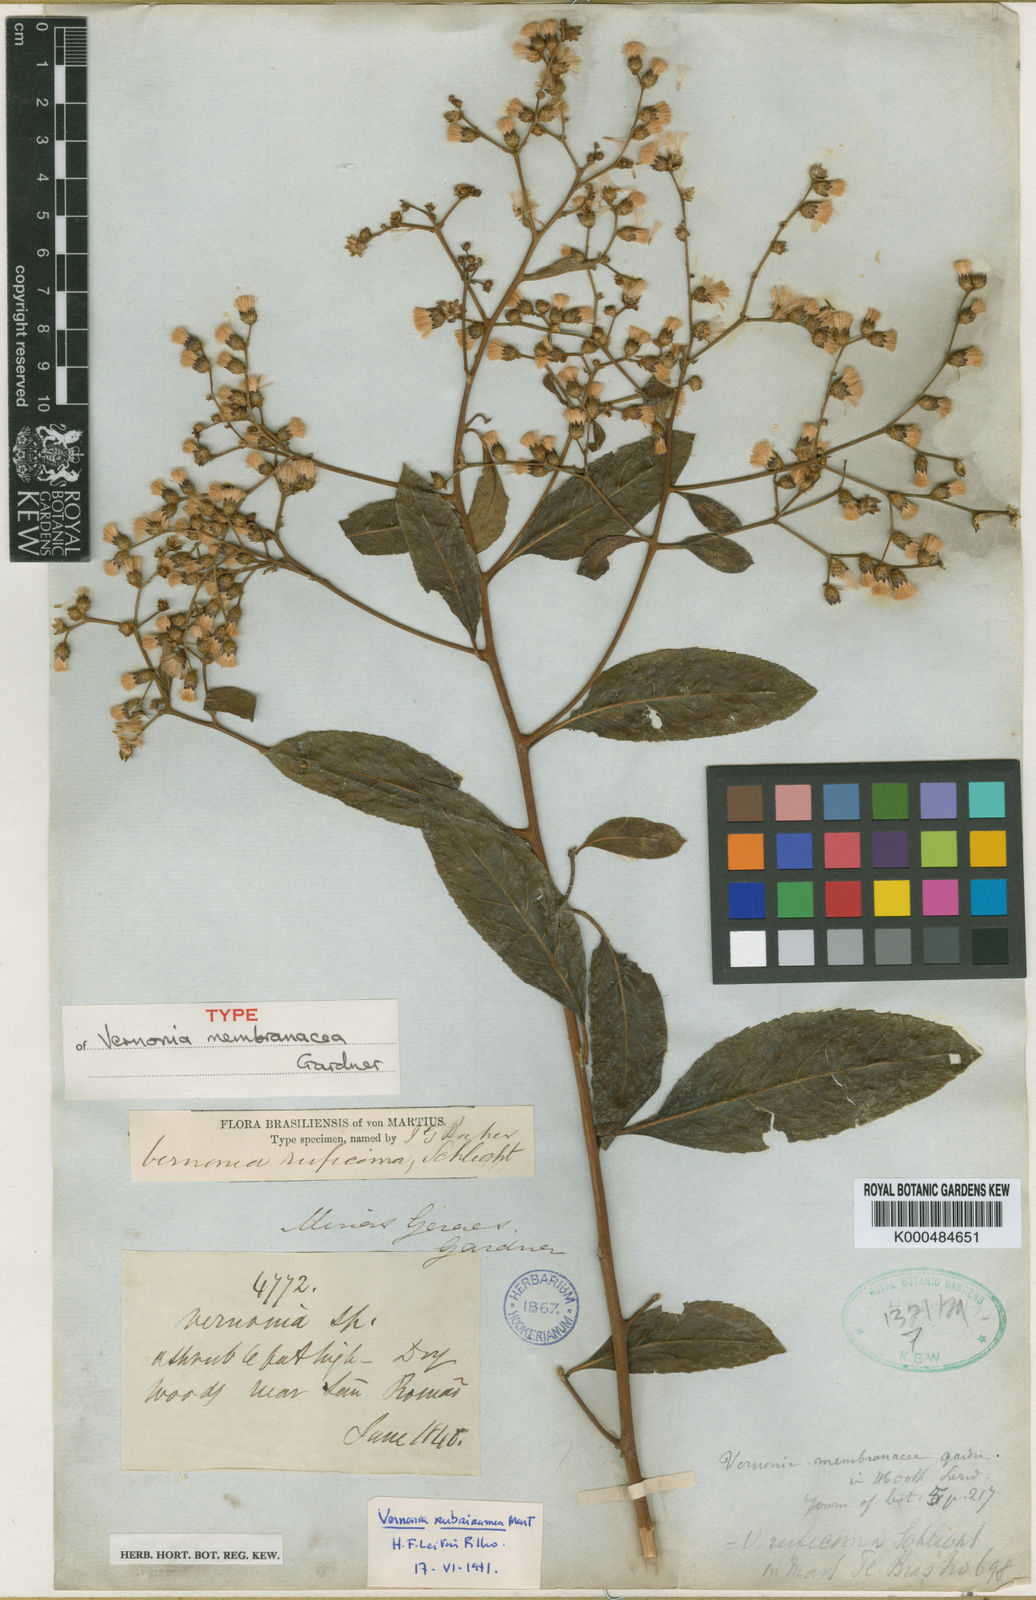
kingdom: Plantae
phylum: Tracheophyta
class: Magnoliopsida
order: Asterales
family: Asteraceae
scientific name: Asteraceae
